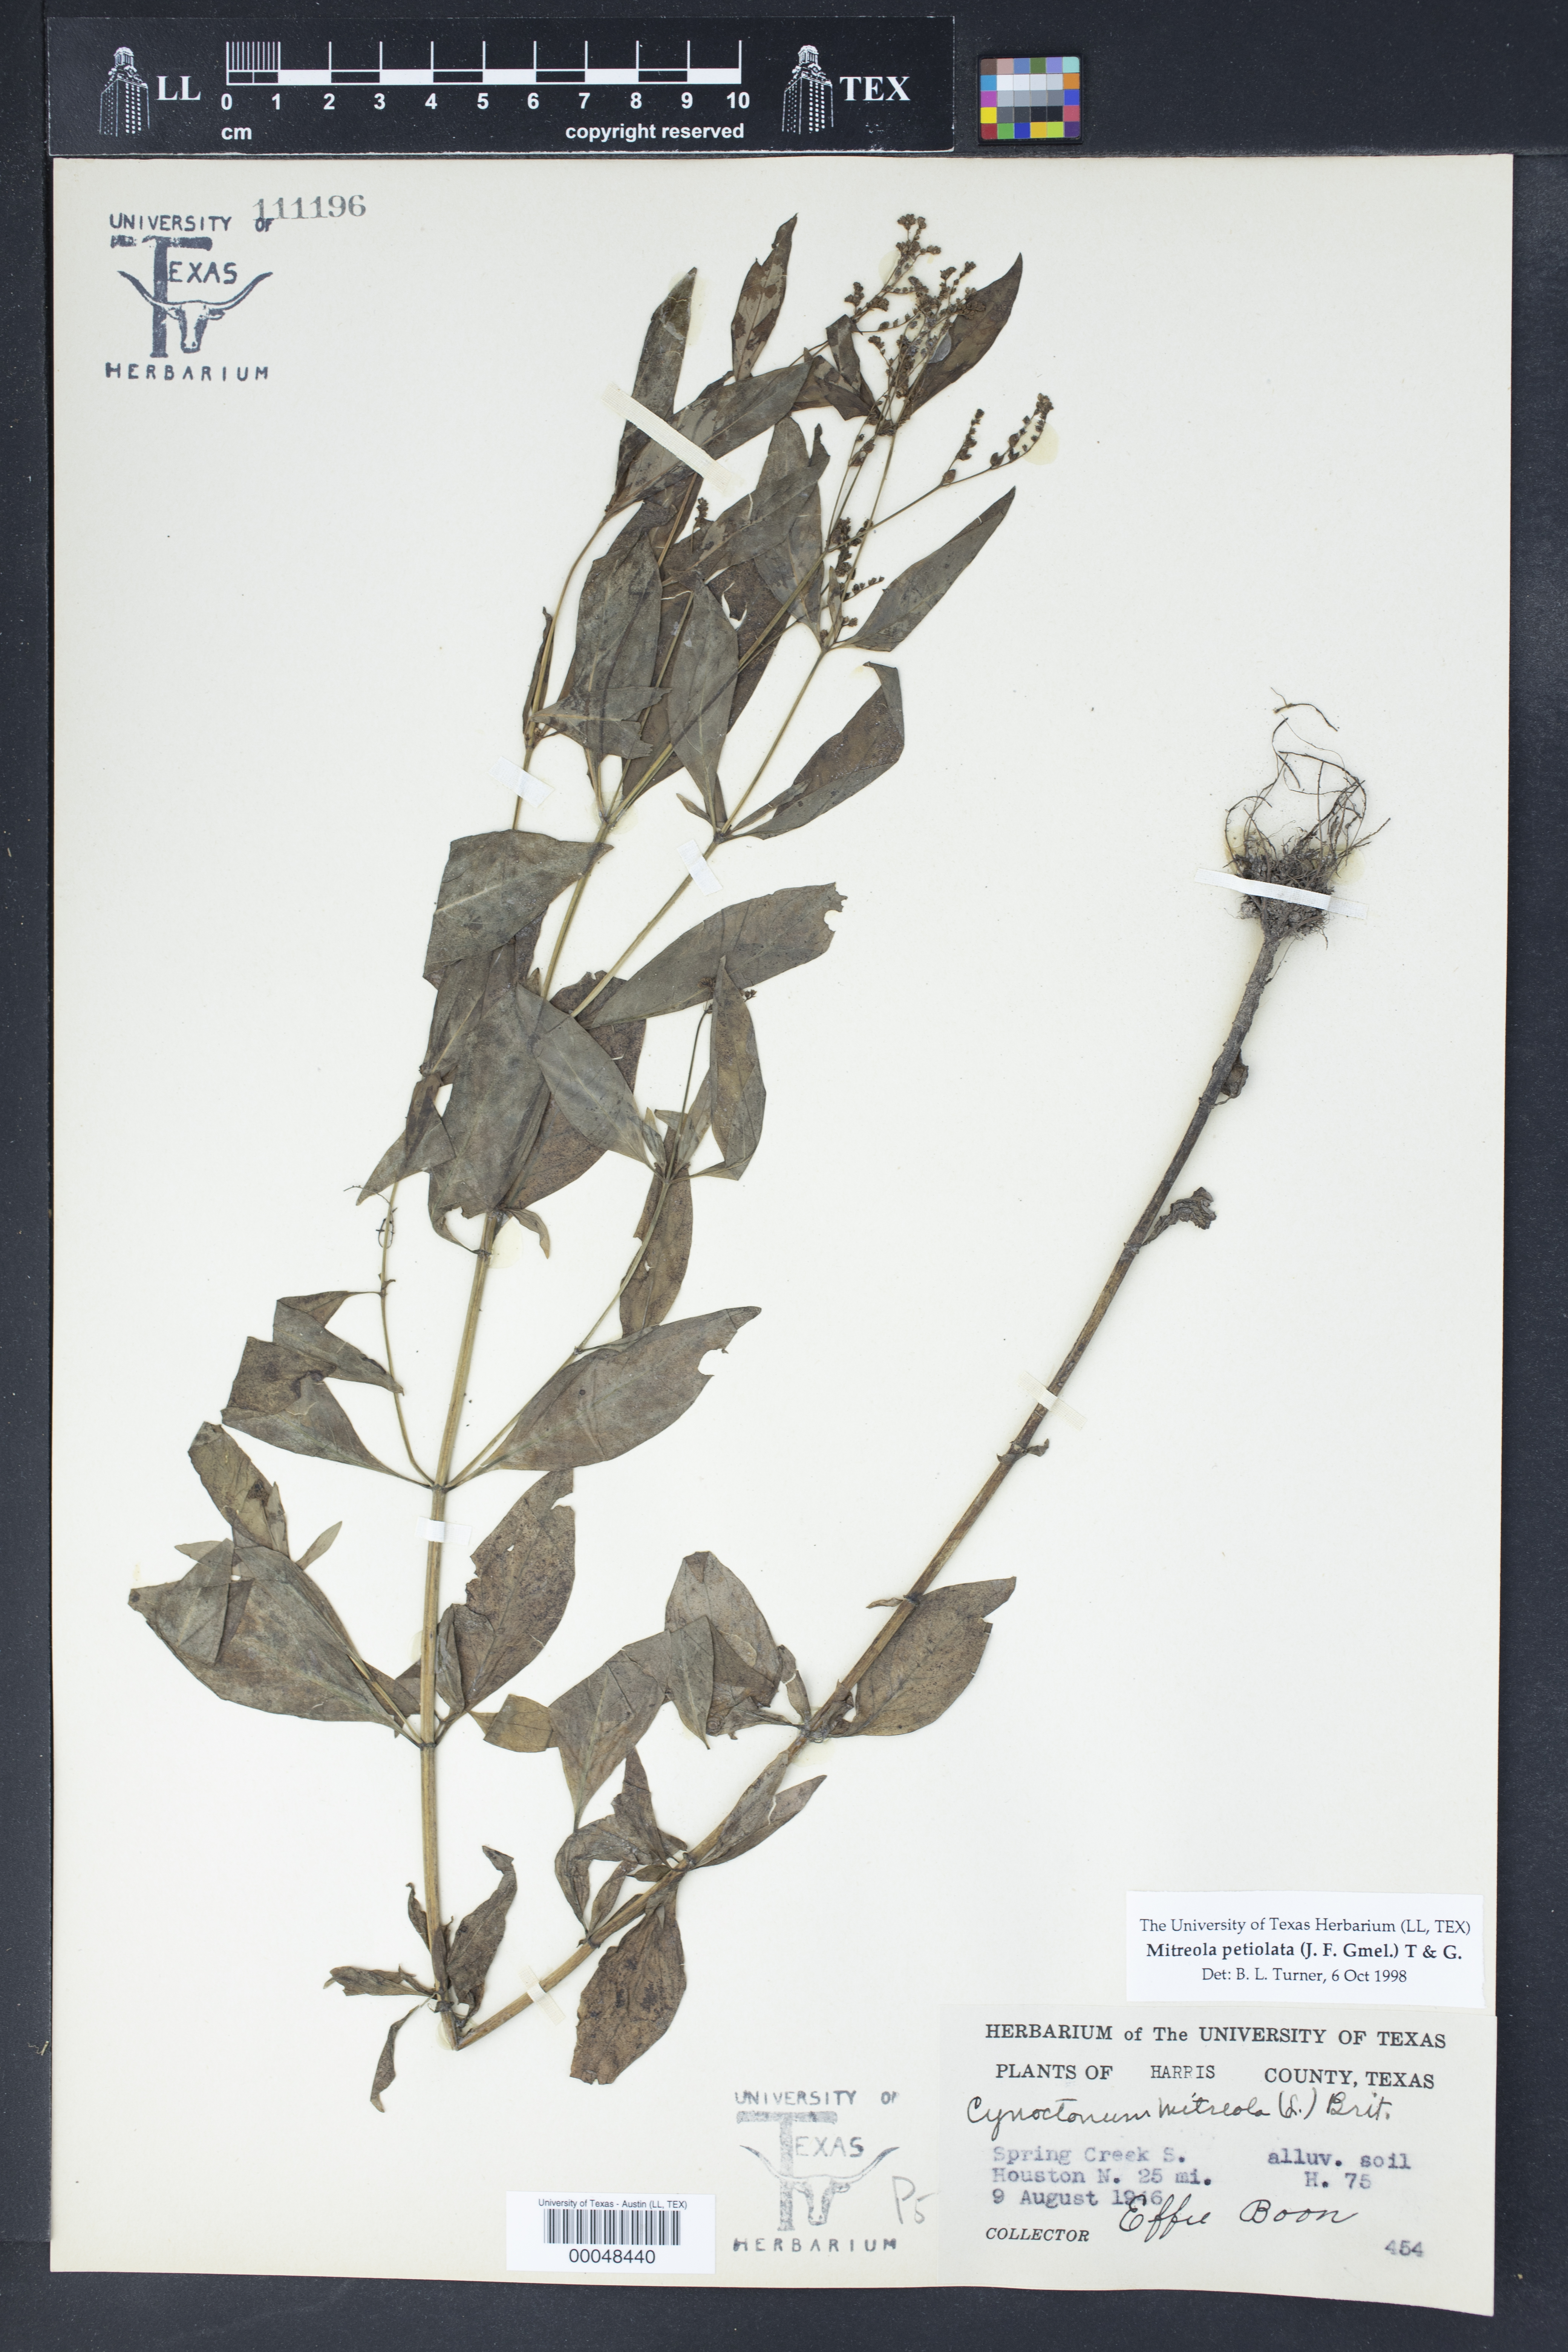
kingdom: Plantae
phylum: Tracheophyta
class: Magnoliopsida
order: Gentianales
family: Loganiaceae
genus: Mitreola
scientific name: Mitreola petiolata
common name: Lax hornpod
